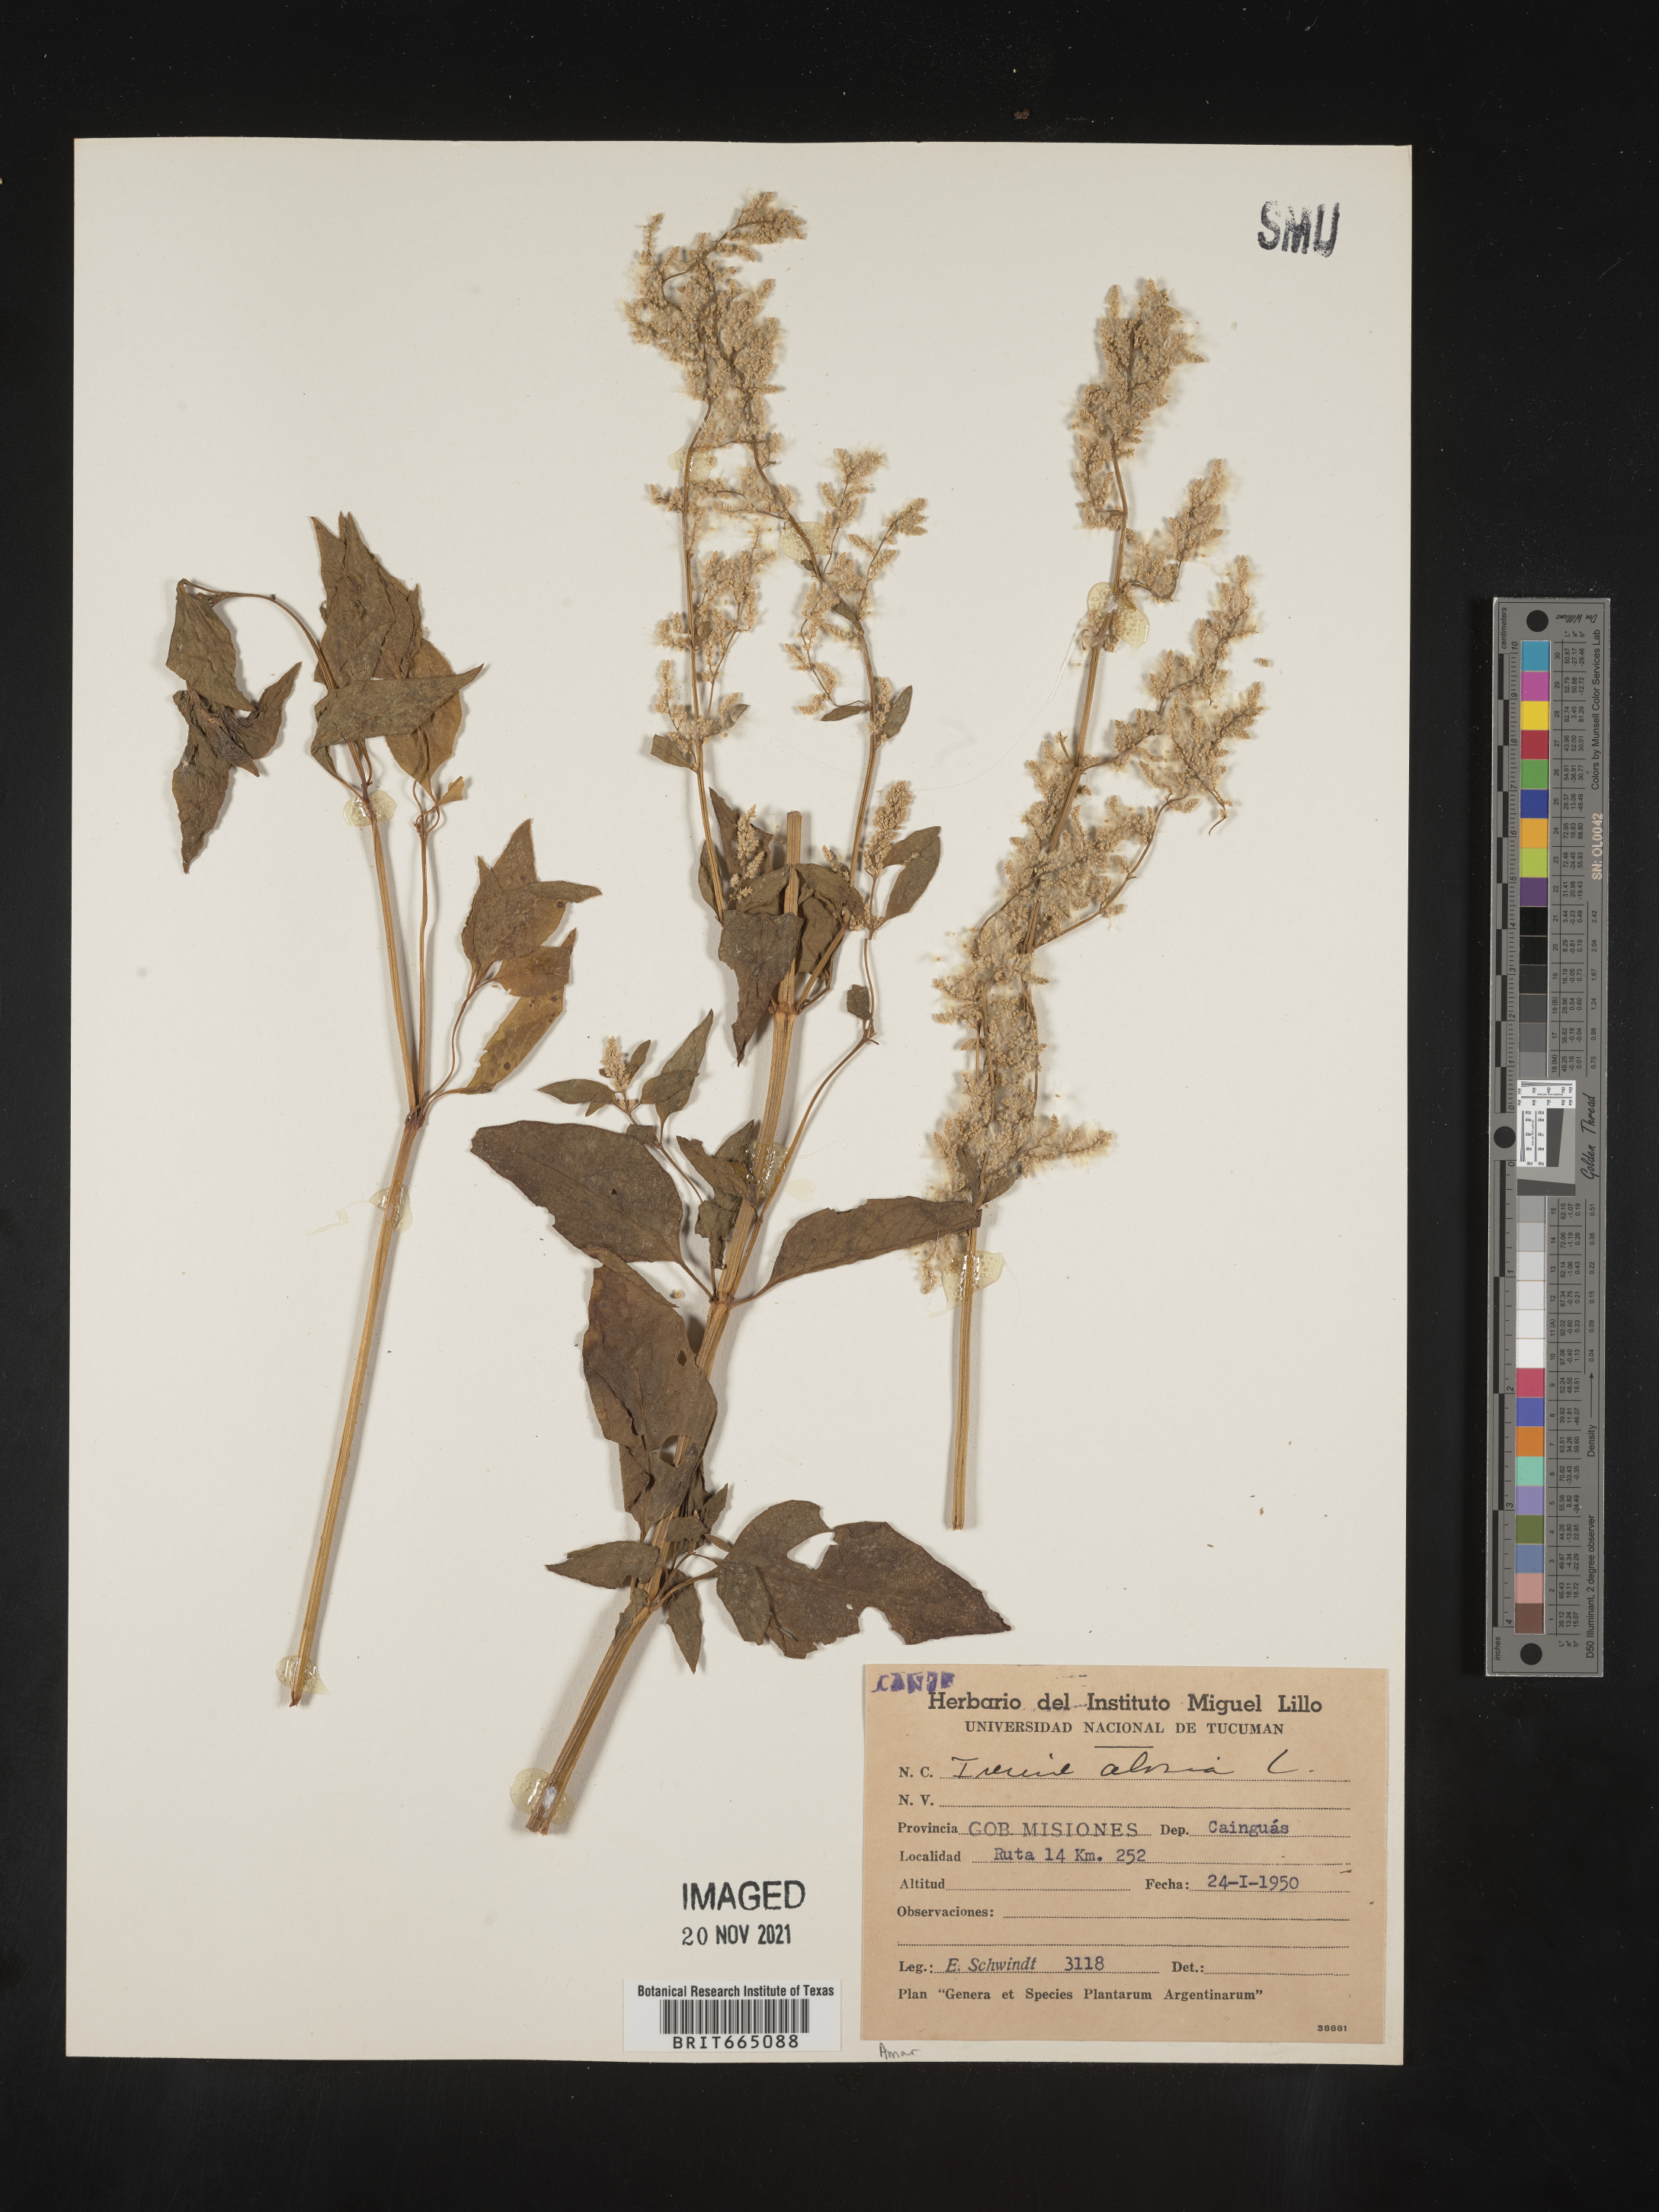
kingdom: Plantae
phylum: Tracheophyta
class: Magnoliopsida
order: Caryophyllales
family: Amaranthaceae
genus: Iresine
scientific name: Iresine
